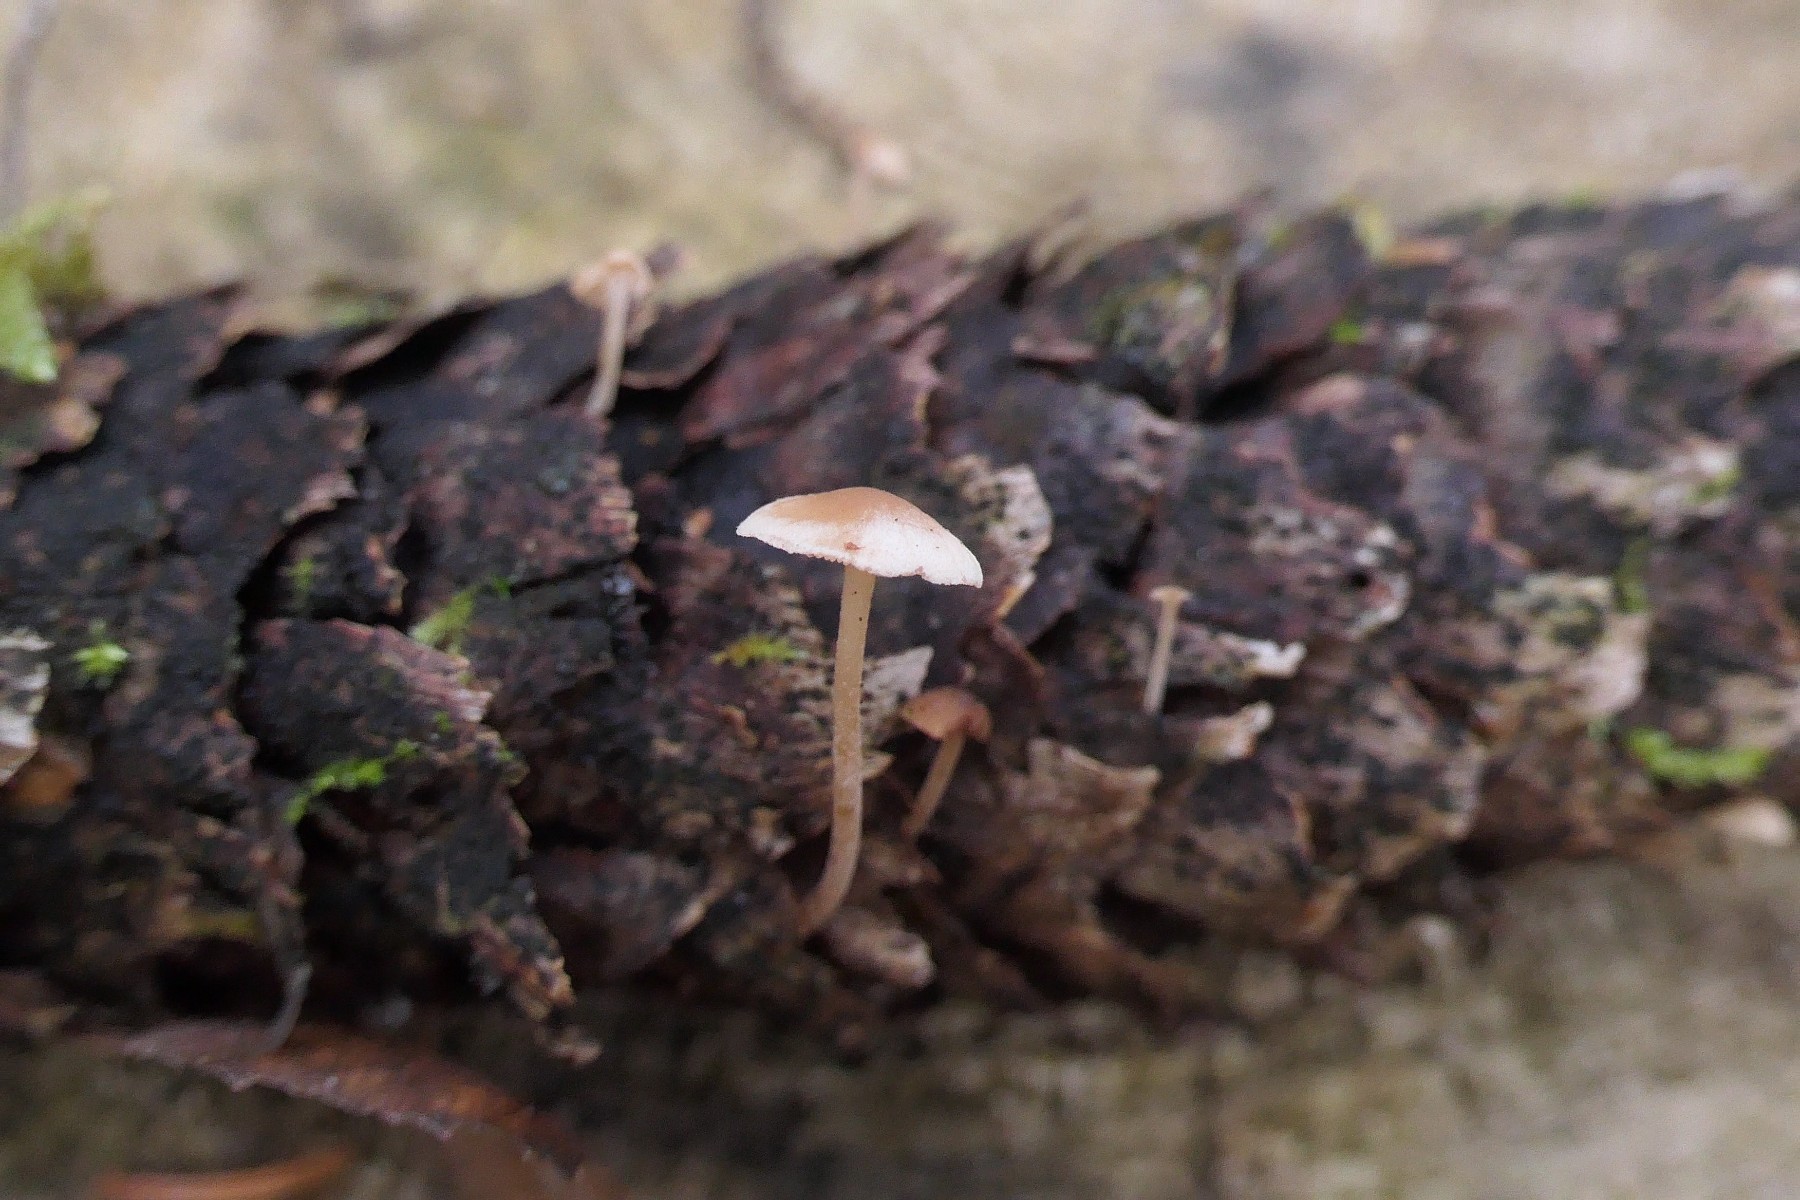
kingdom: Fungi
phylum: Basidiomycota
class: Agaricomycetes
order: Agaricales
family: Marasmiaceae
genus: Baeospora
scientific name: Baeospora myosura
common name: koglebruskhat
